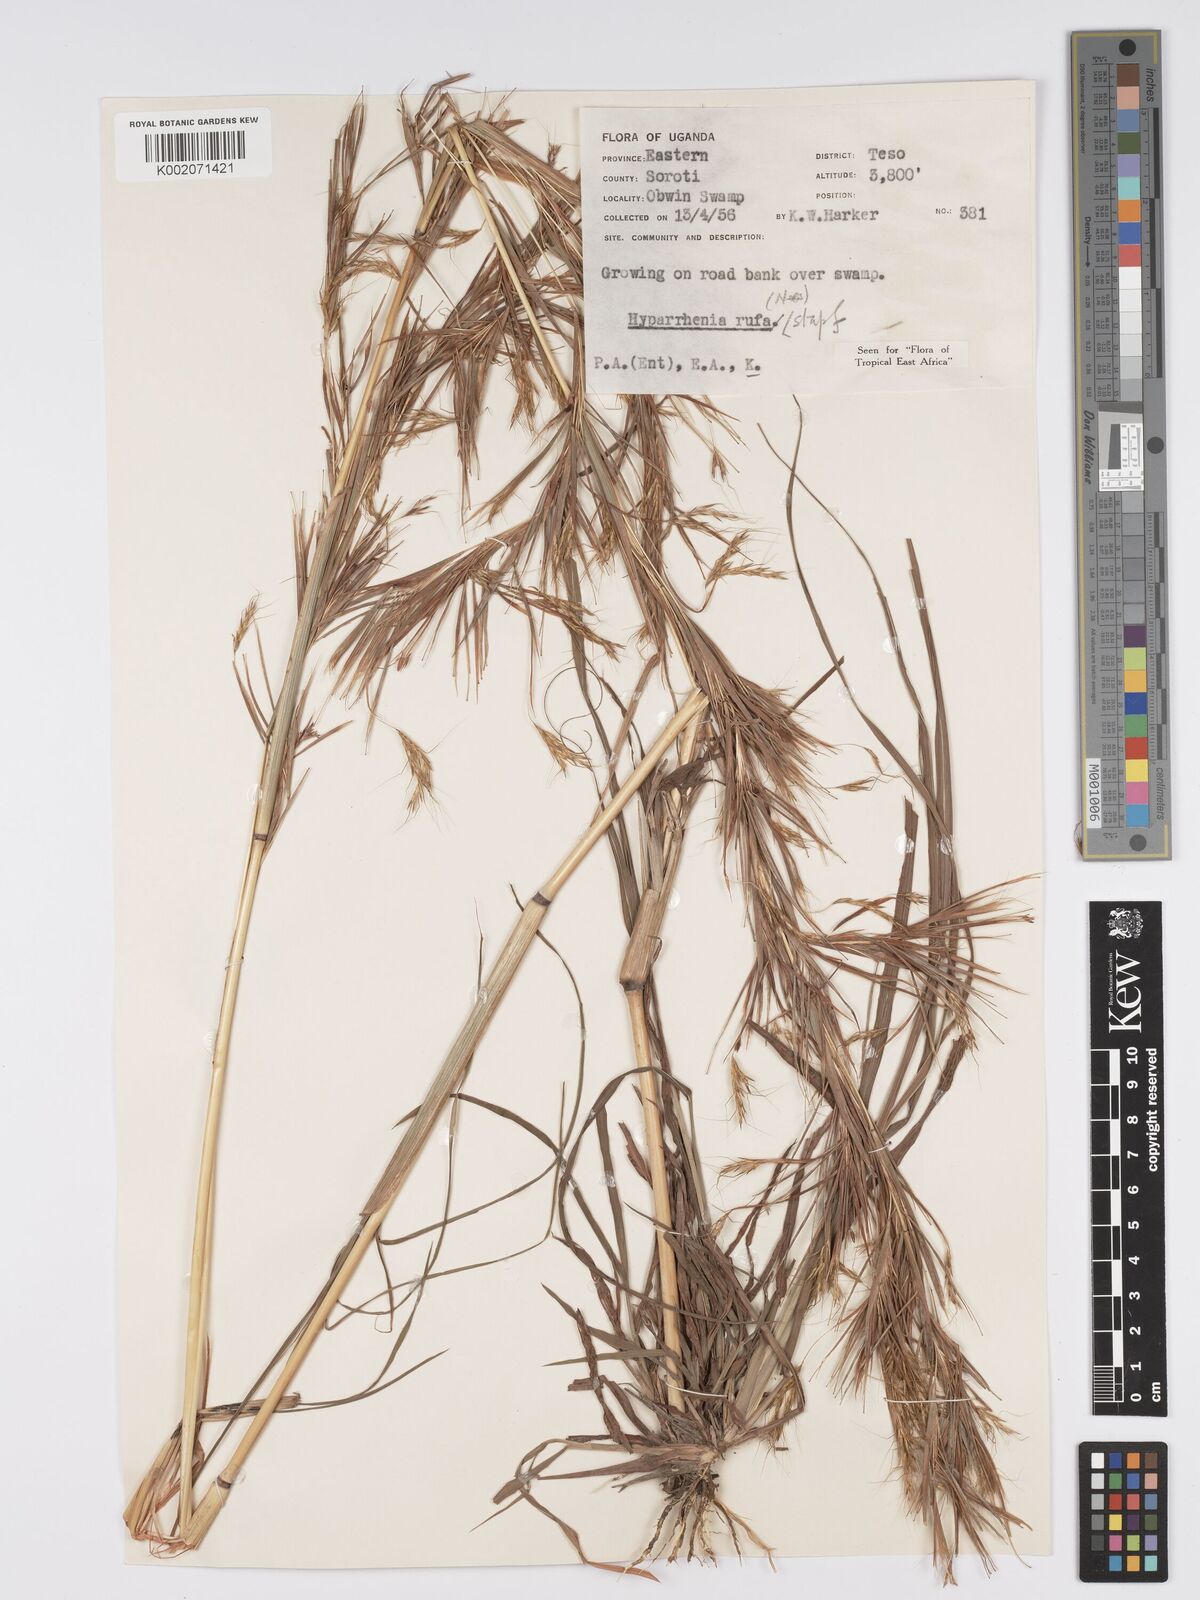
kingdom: Plantae
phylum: Tracheophyta
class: Liliopsida
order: Poales
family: Poaceae
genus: Hyparrhenia
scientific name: Hyparrhenia rufa
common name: Jaraguagrass
